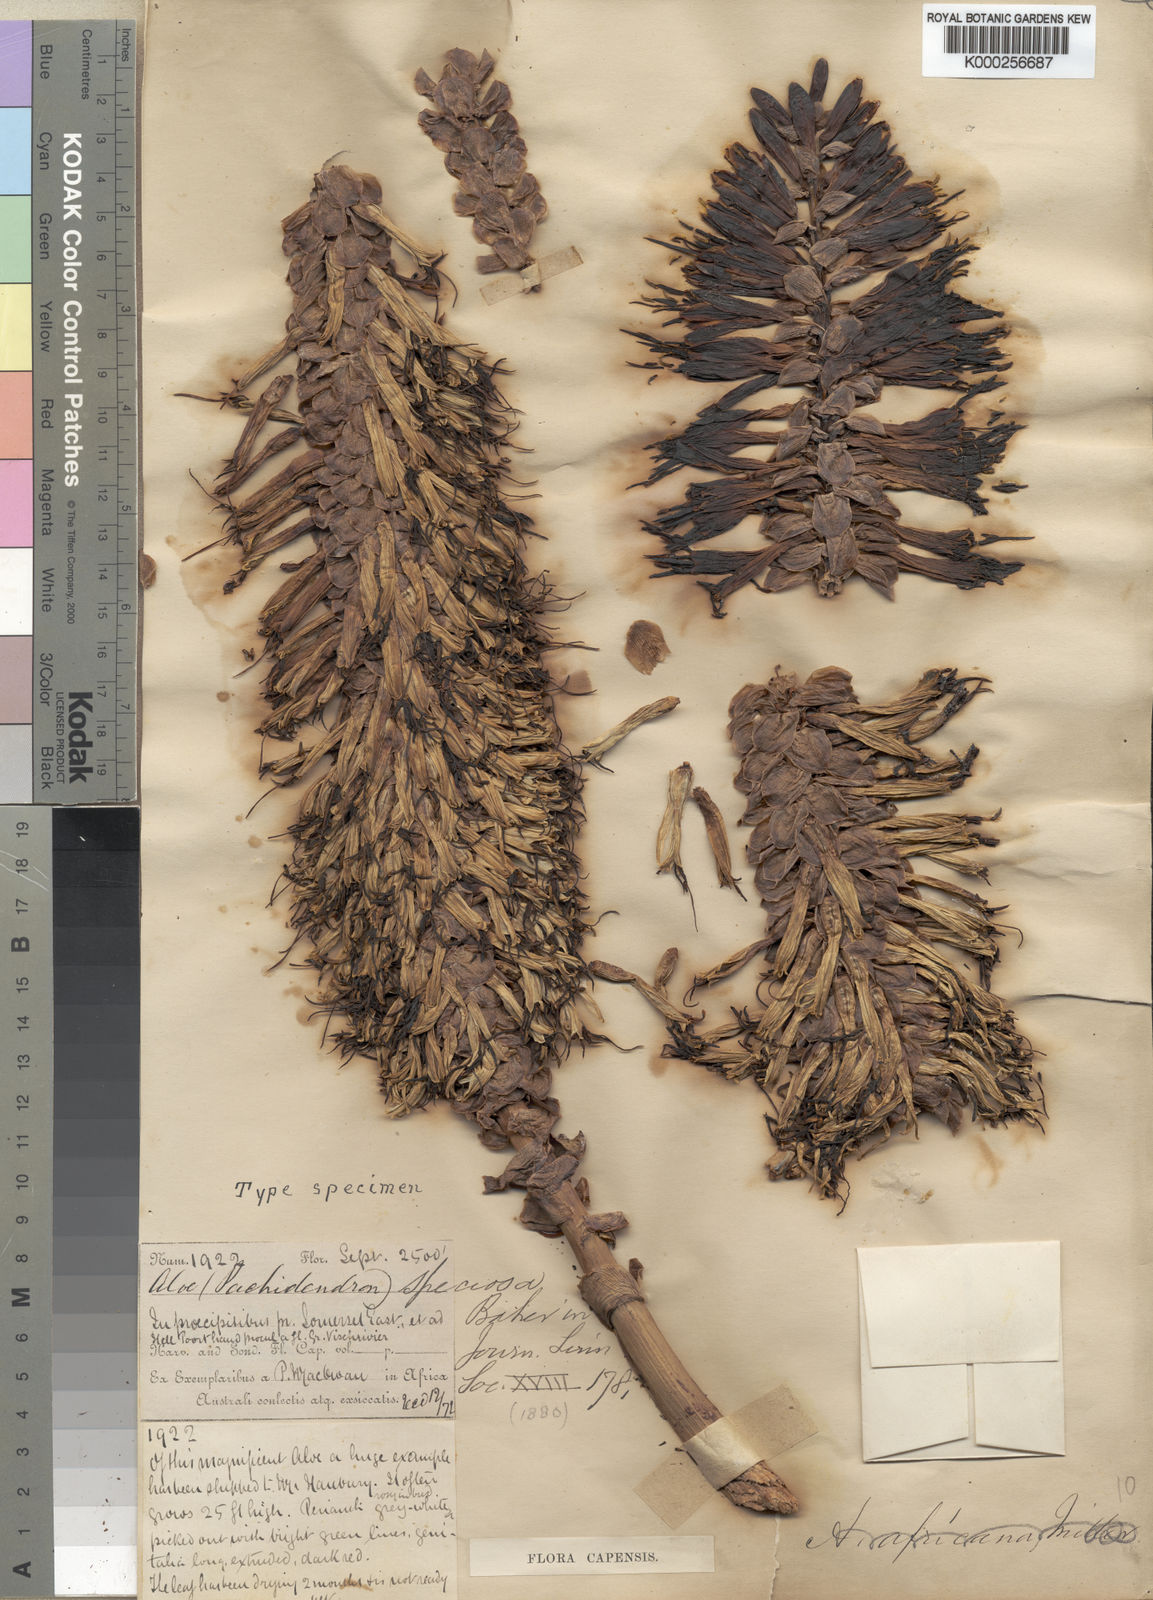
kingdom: Plantae
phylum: Tracheophyta
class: Liliopsida
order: Asparagales
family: Asphodelaceae
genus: Aloe
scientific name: Aloe speciosa
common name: Beautiful aloe
